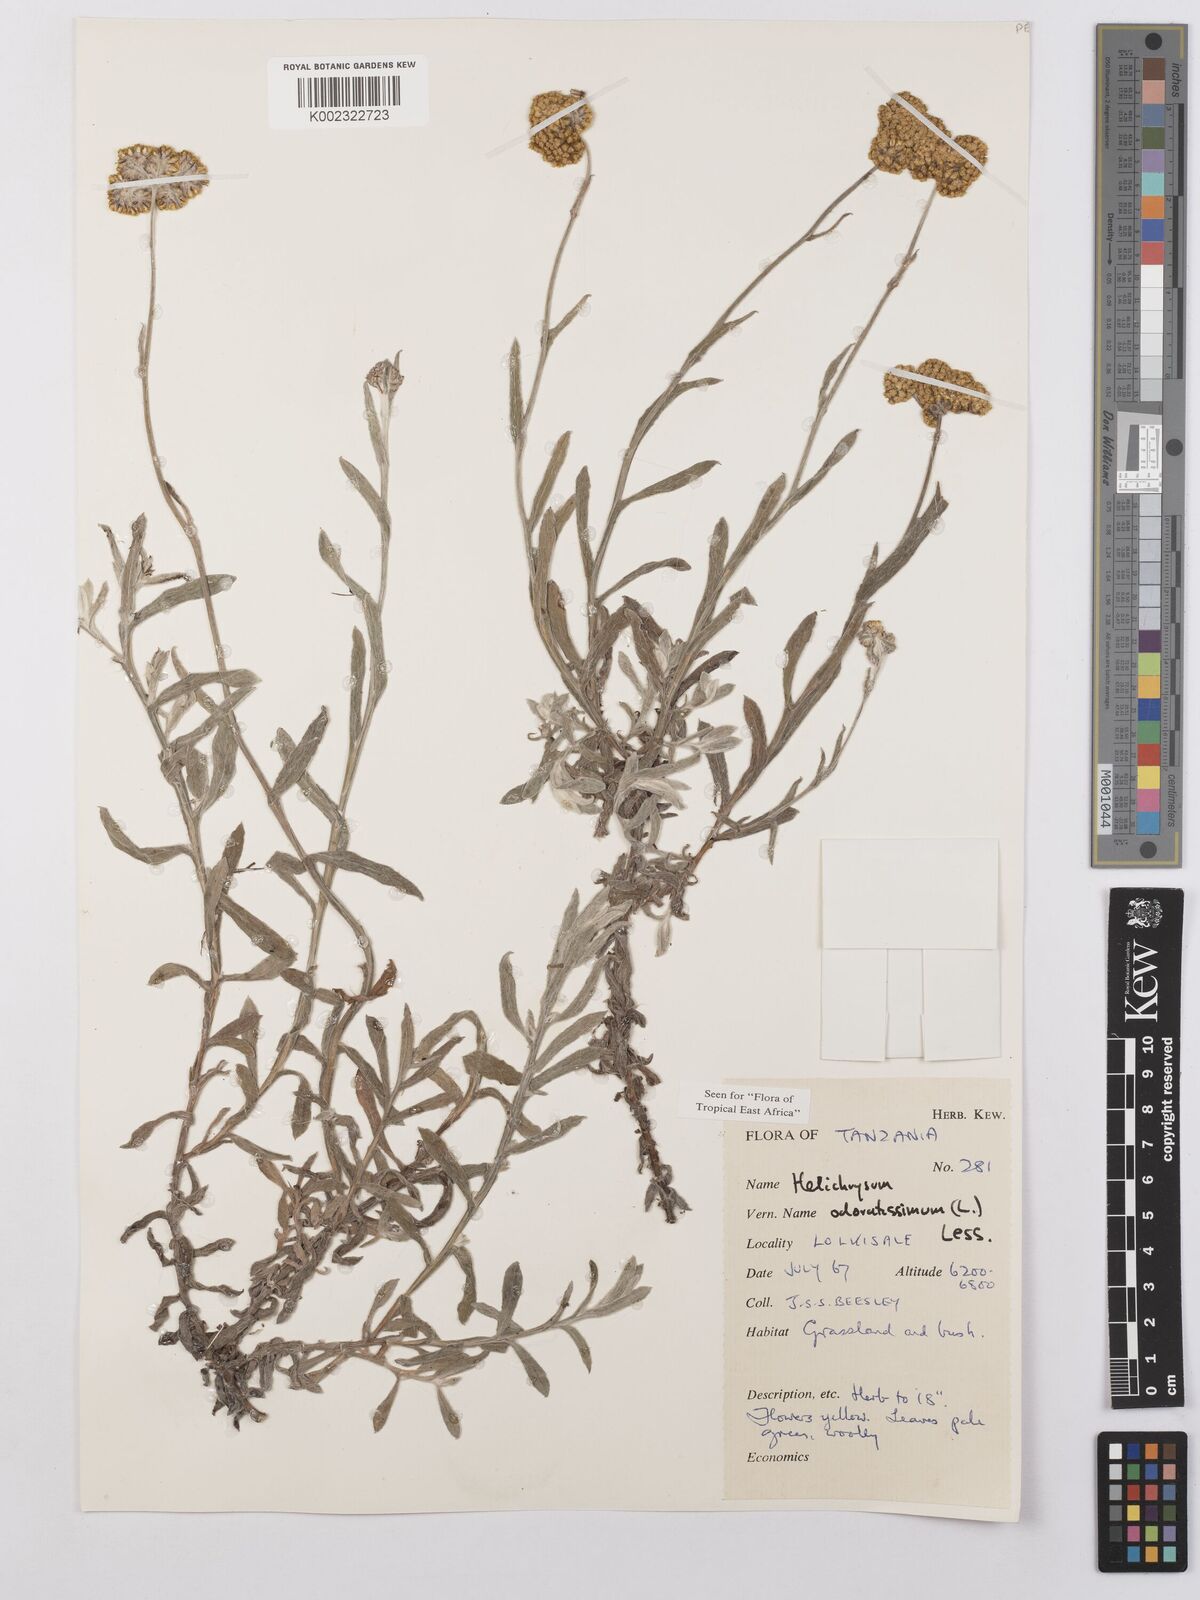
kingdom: Plantae
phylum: Tracheophyta
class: Magnoliopsida
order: Asterales
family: Asteraceae
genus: Helichrysum
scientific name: Helichrysum odoratissimum
